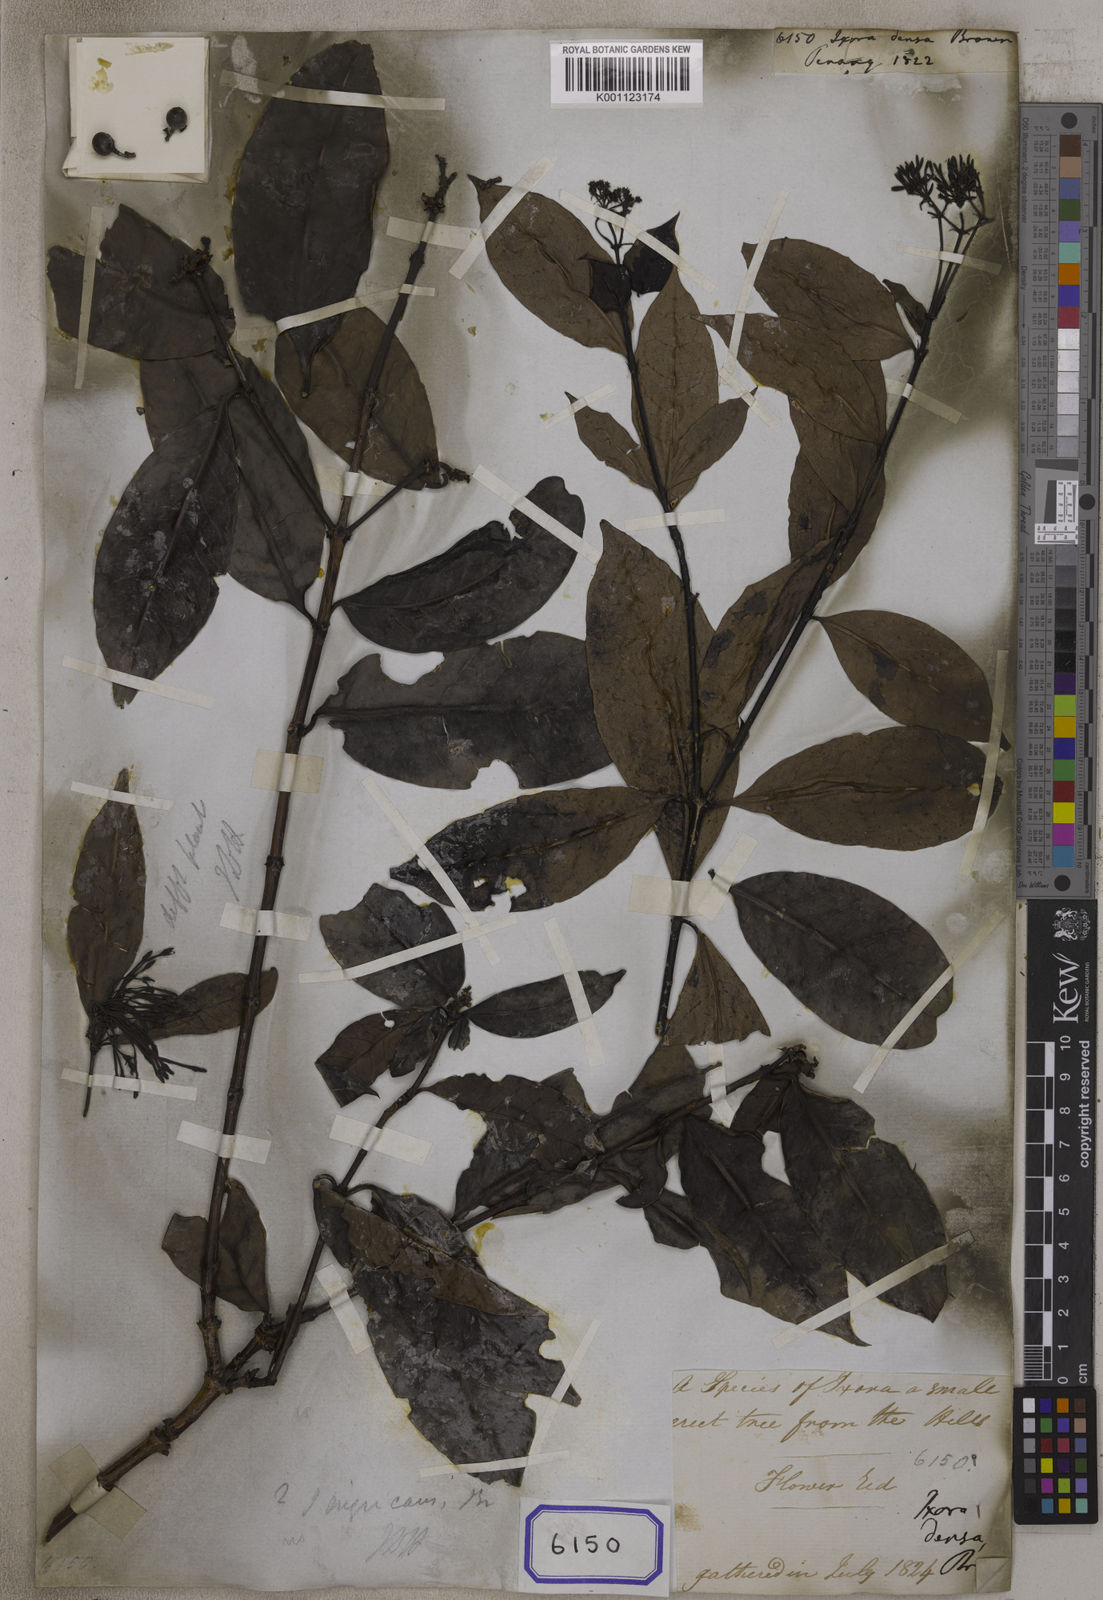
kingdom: Plantae
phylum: Tracheophyta
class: Magnoliopsida
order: Gentianales
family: Rubiaceae
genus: Ixora
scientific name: Ixora
